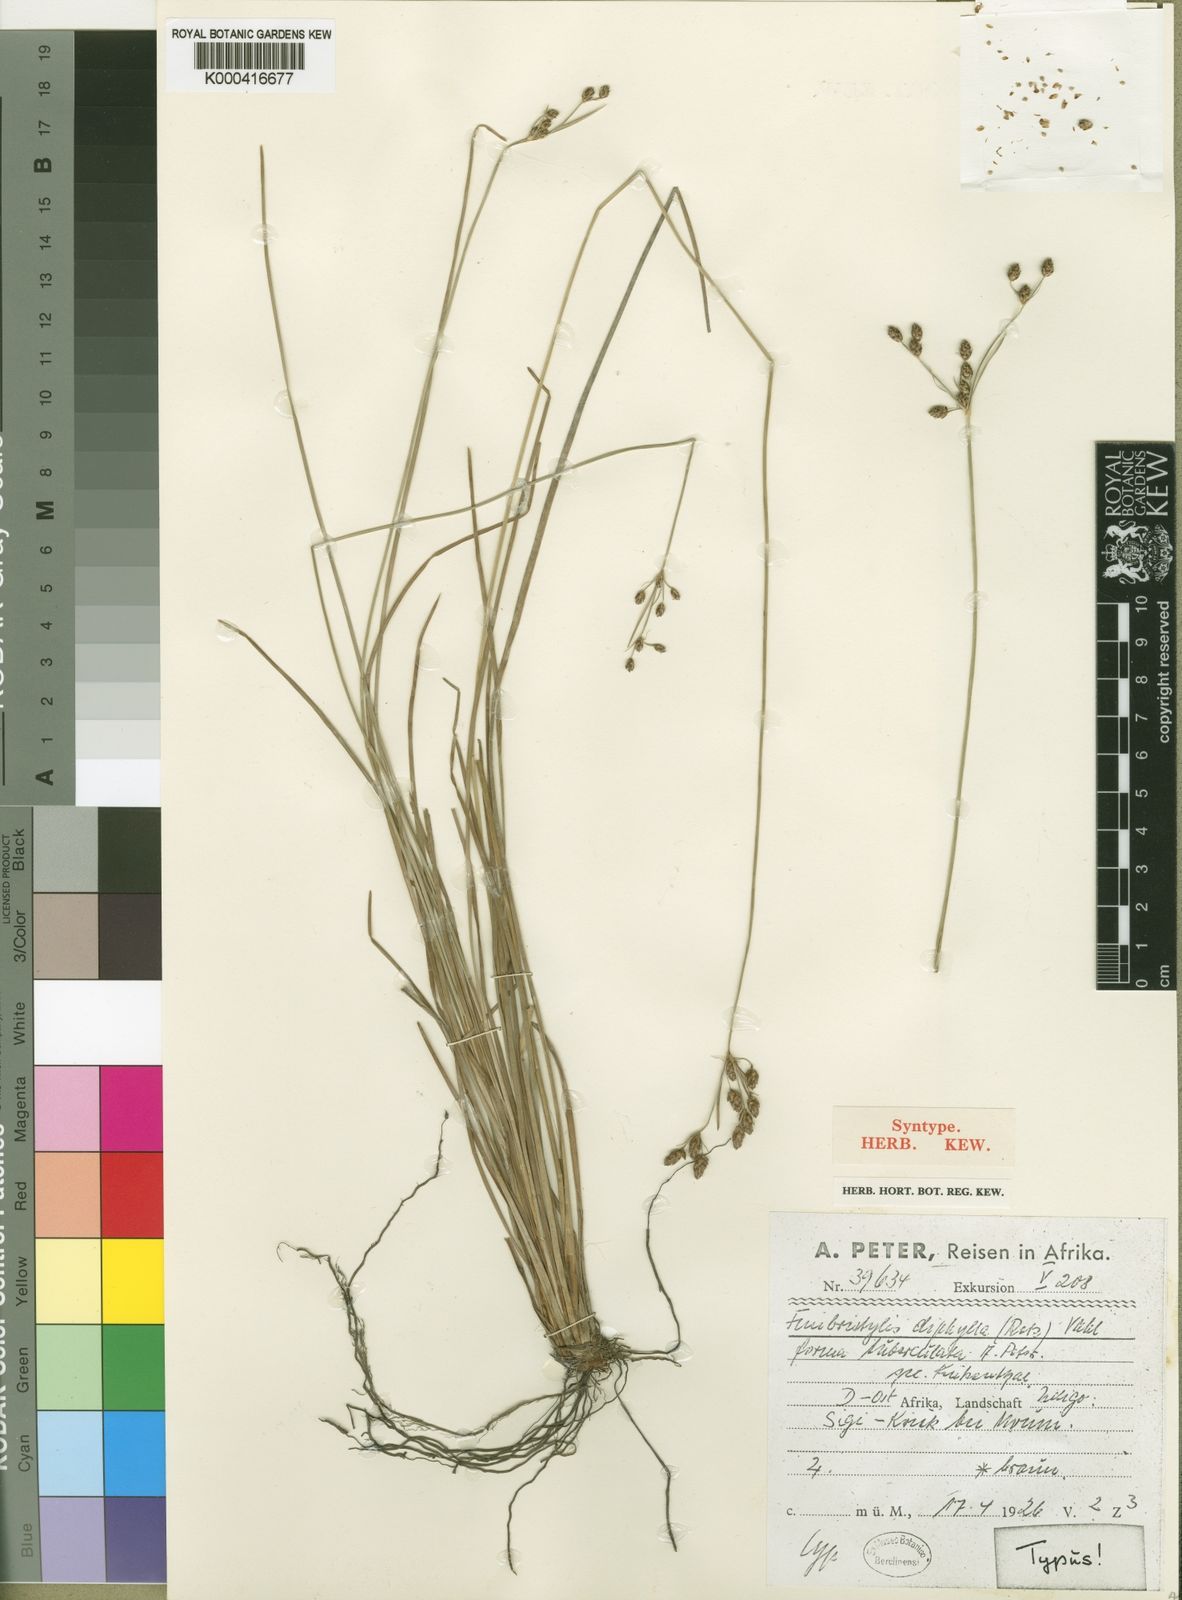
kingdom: Plantae
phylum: Tracheophyta
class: Liliopsida
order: Poales
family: Cyperaceae
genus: Fimbristylis
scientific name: Fimbristylis dichotoma
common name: Forked fimbry
